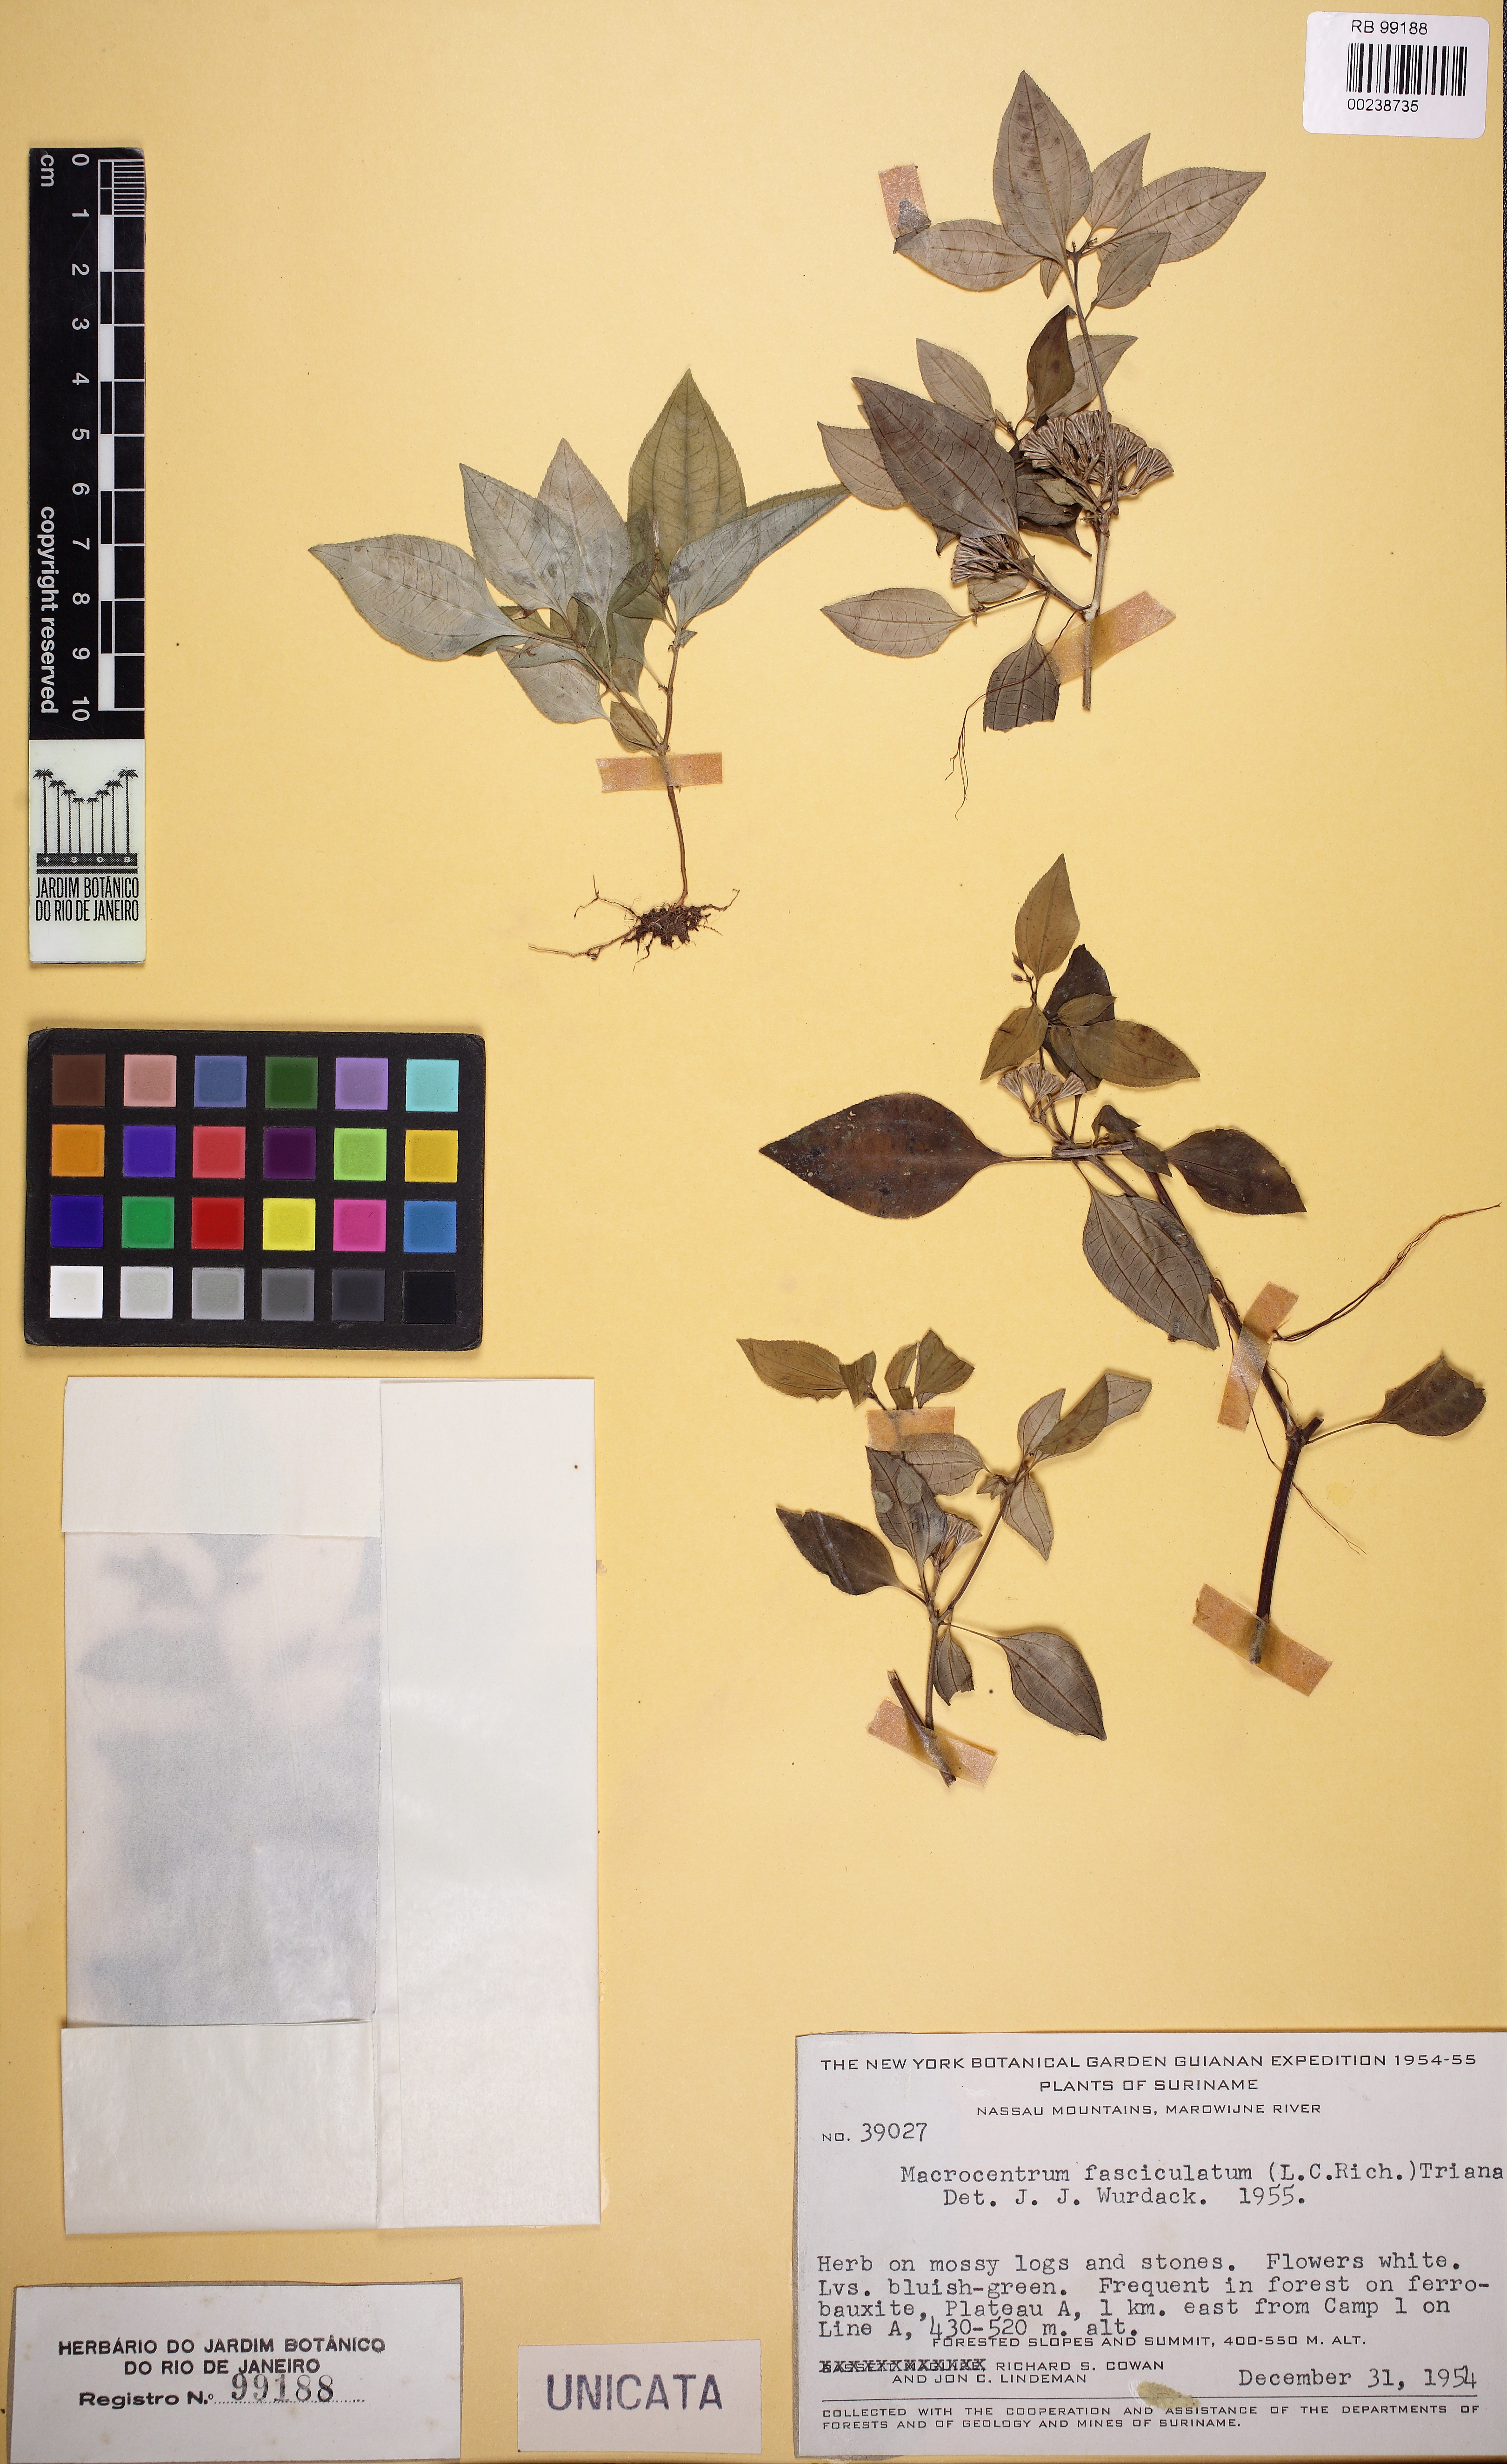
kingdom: Plantae
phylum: Tracheophyta
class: Magnoliopsida
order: Myrtales
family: Melastomataceae
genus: Macrocentrum
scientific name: Macrocentrum fasciculatum
